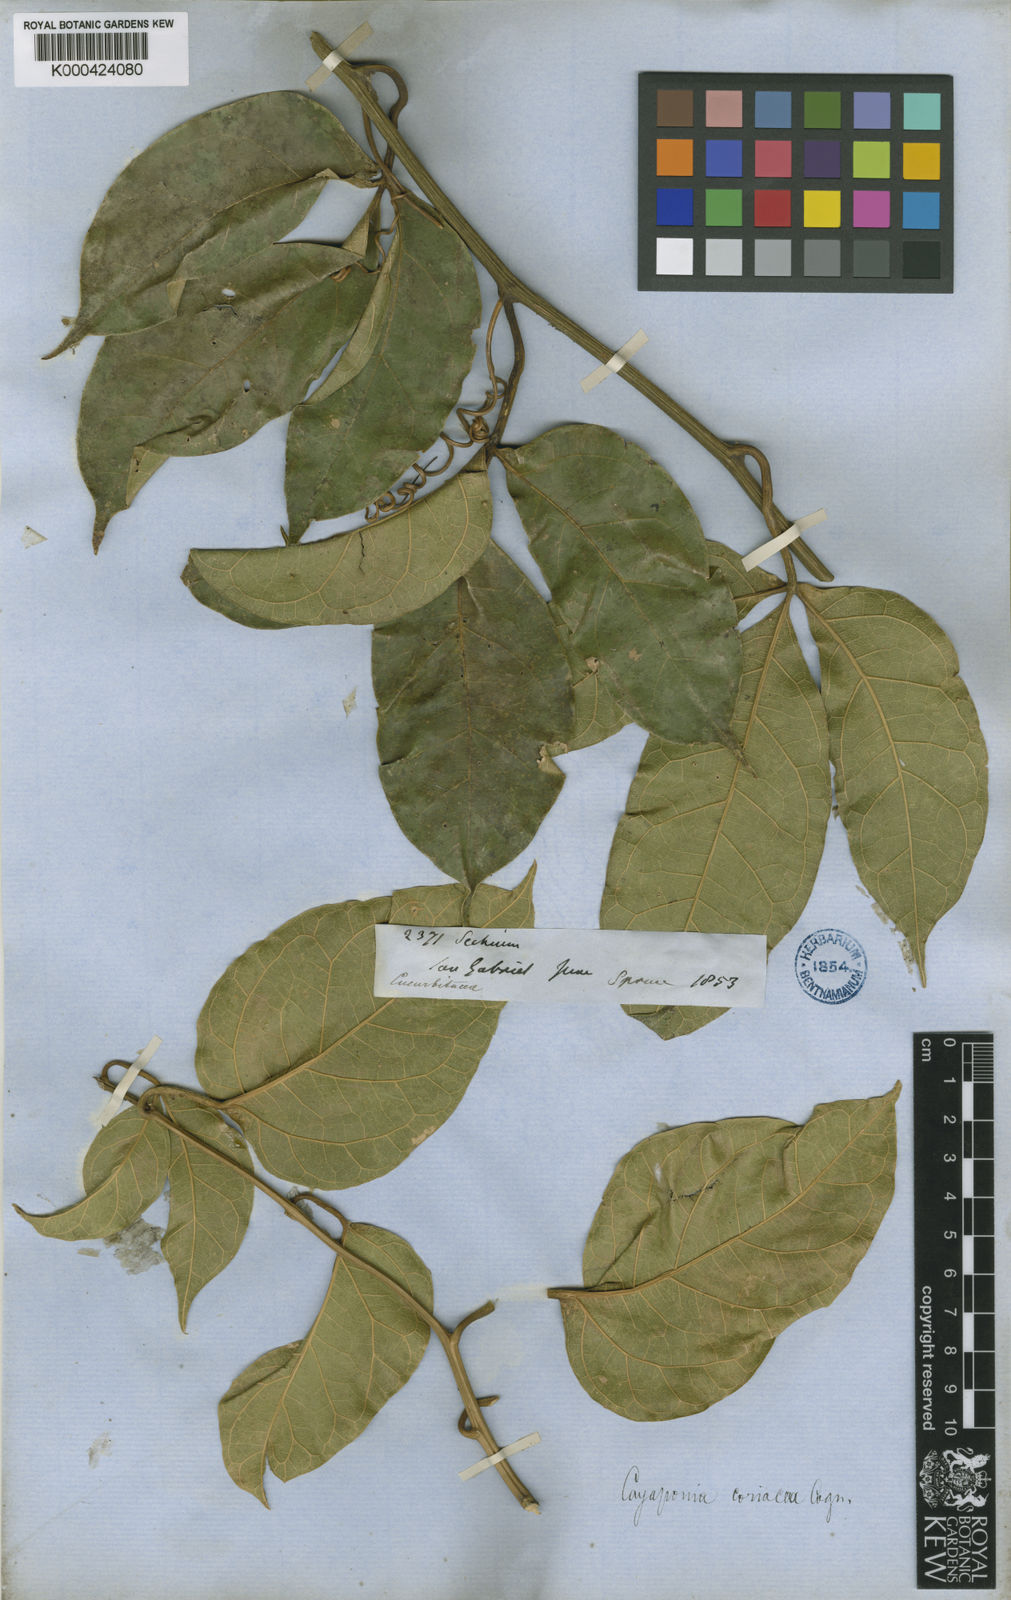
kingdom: Plantae
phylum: Tracheophyta
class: Magnoliopsida
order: Cucurbitales
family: Cucurbitaceae
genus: Cayaponia
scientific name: Cayaponia coriacea
